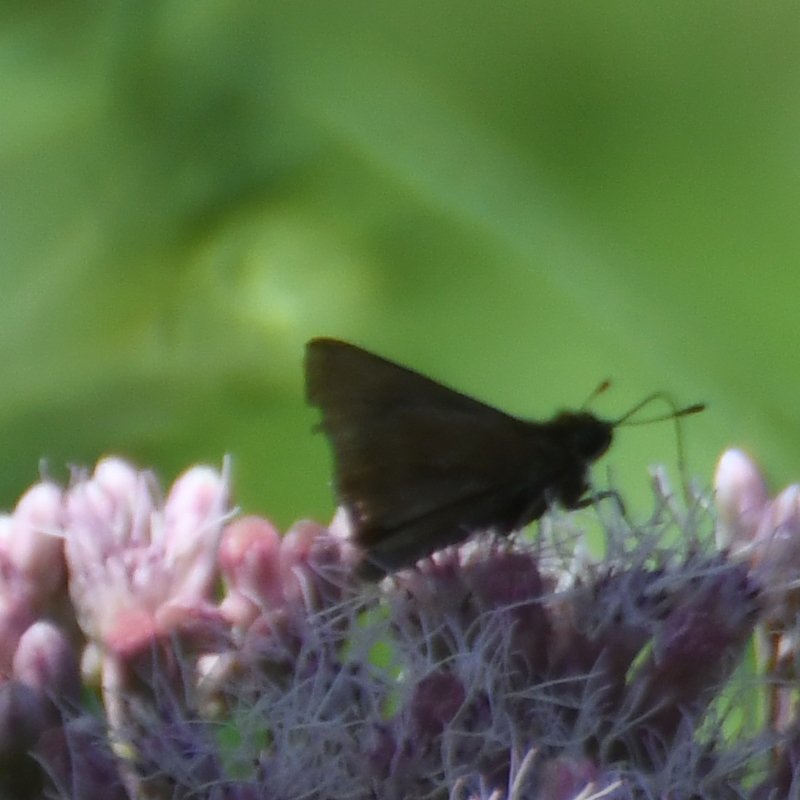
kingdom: Animalia
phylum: Arthropoda
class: Insecta
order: Lepidoptera
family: Hesperiidae
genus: Euphyes
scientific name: Euphyes vestris
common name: Dun Skipper
